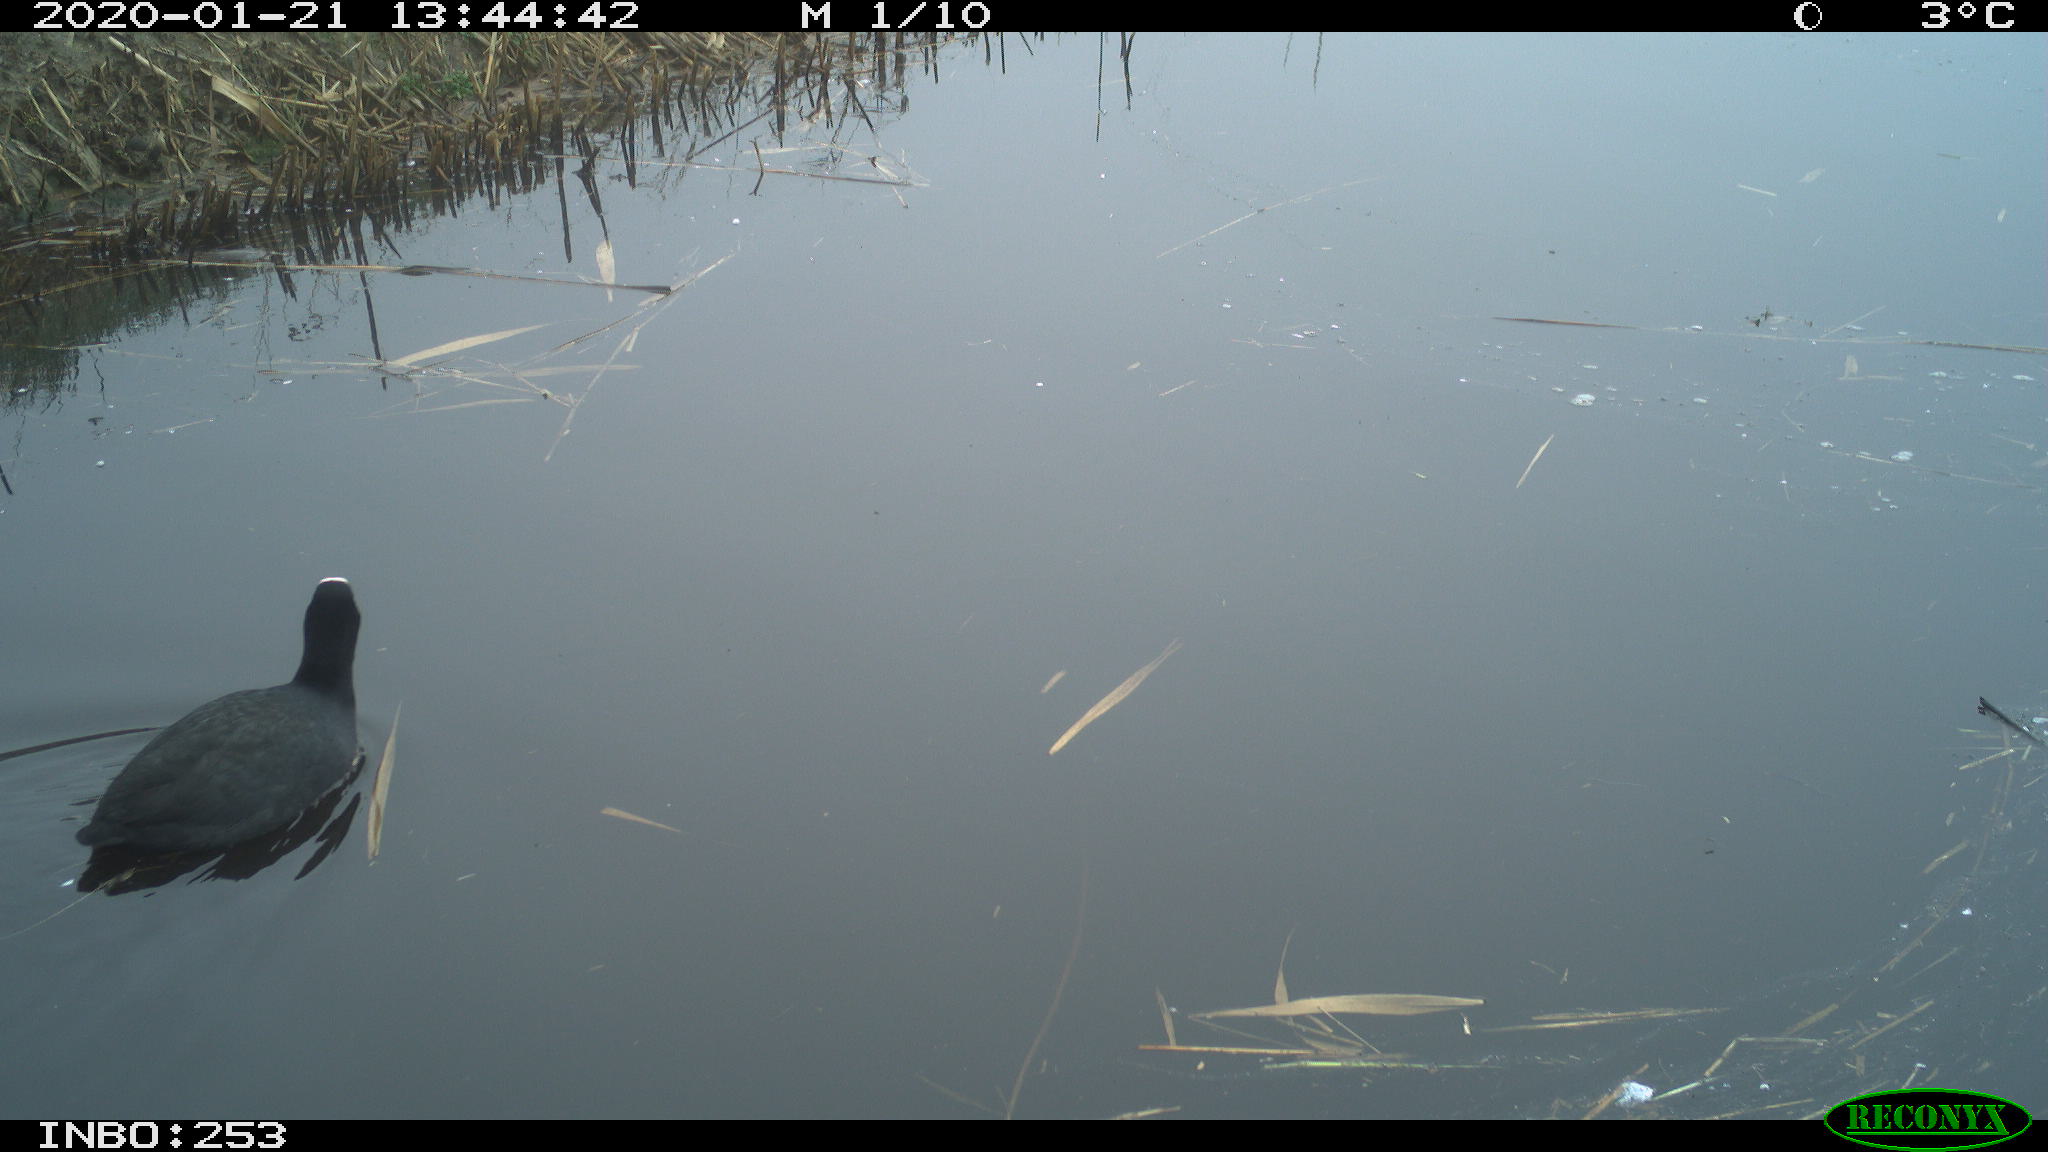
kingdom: Animalia
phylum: Chordata
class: Aves
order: Gruiformes
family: Rallidae
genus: Fulica
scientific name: Fulica atra
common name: Eurasian coot
